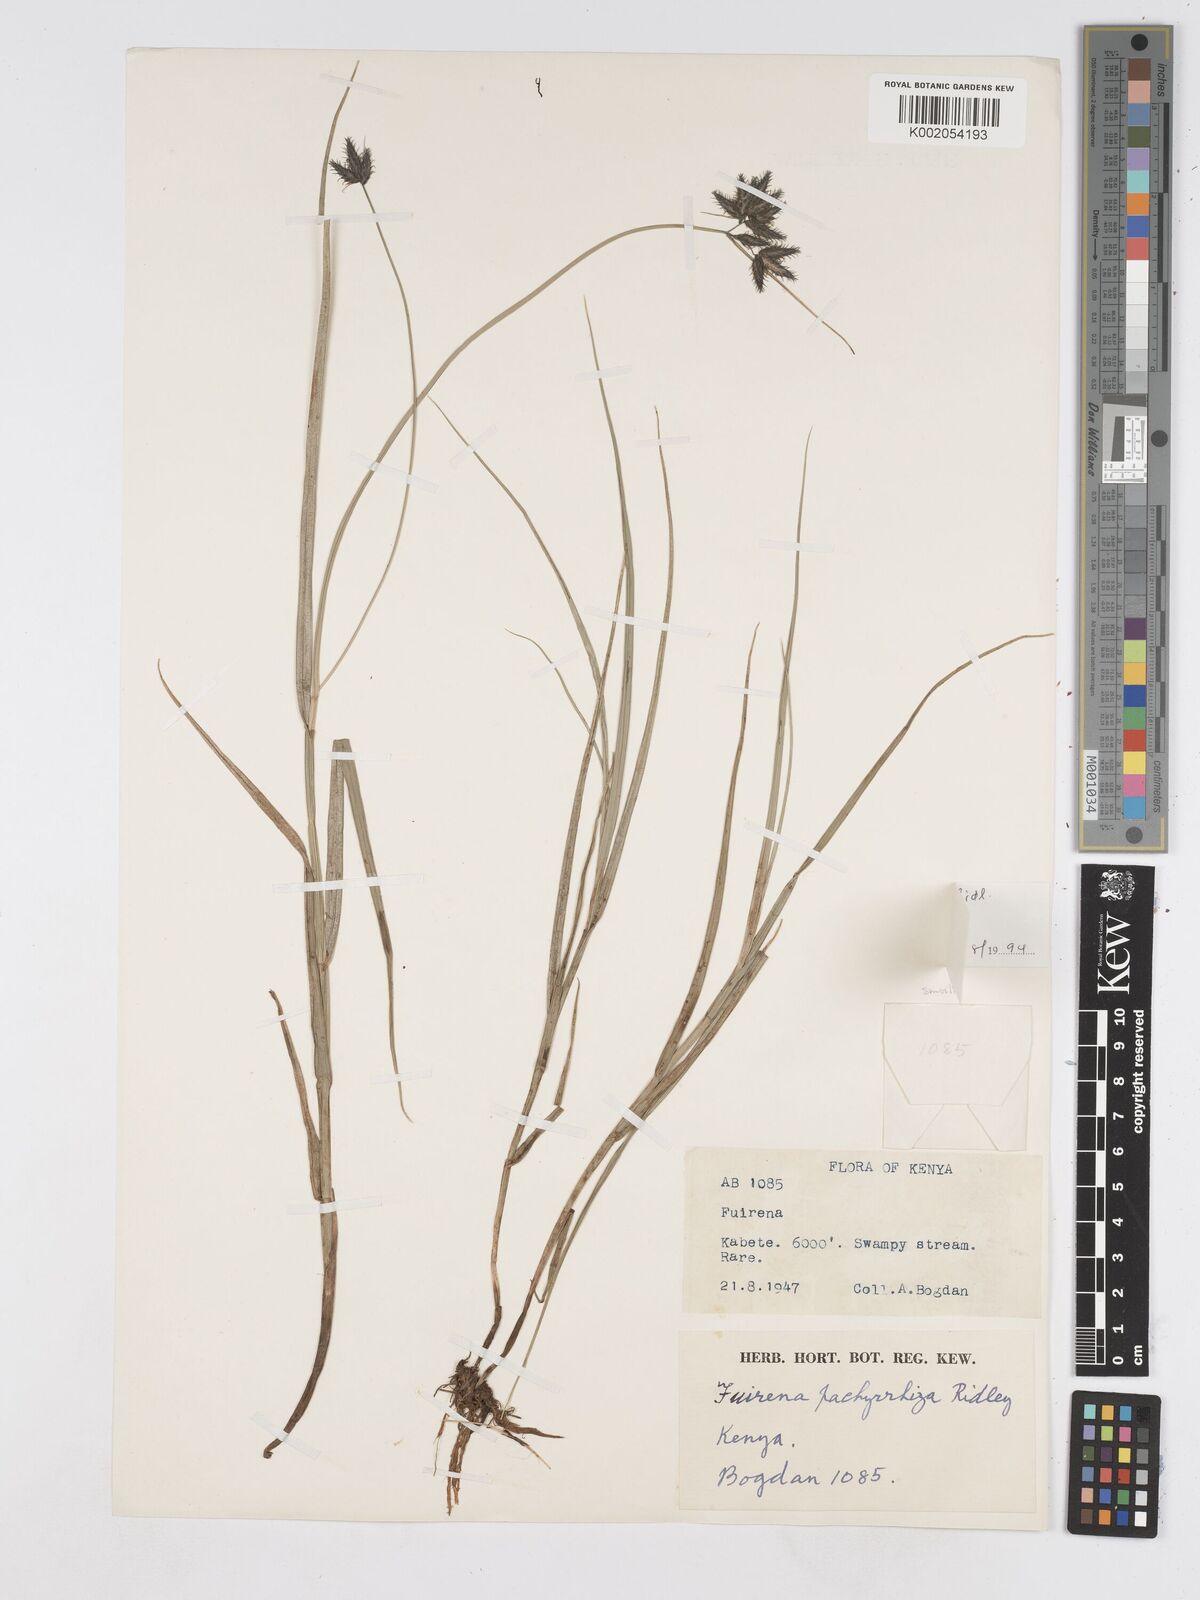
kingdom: Plantae
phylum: Tracheophyta
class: Liliopsida
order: Poales
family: Cyperaceae
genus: Fuirena
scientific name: Fuirena welwitschii
